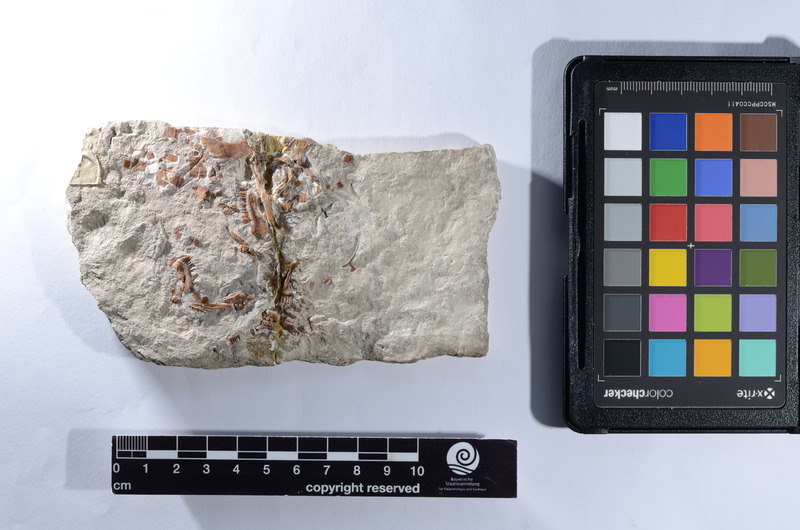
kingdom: Animalia
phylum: Chordata
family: Macrosemiidae
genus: Macrosemius
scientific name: Macrosemius rostratus
